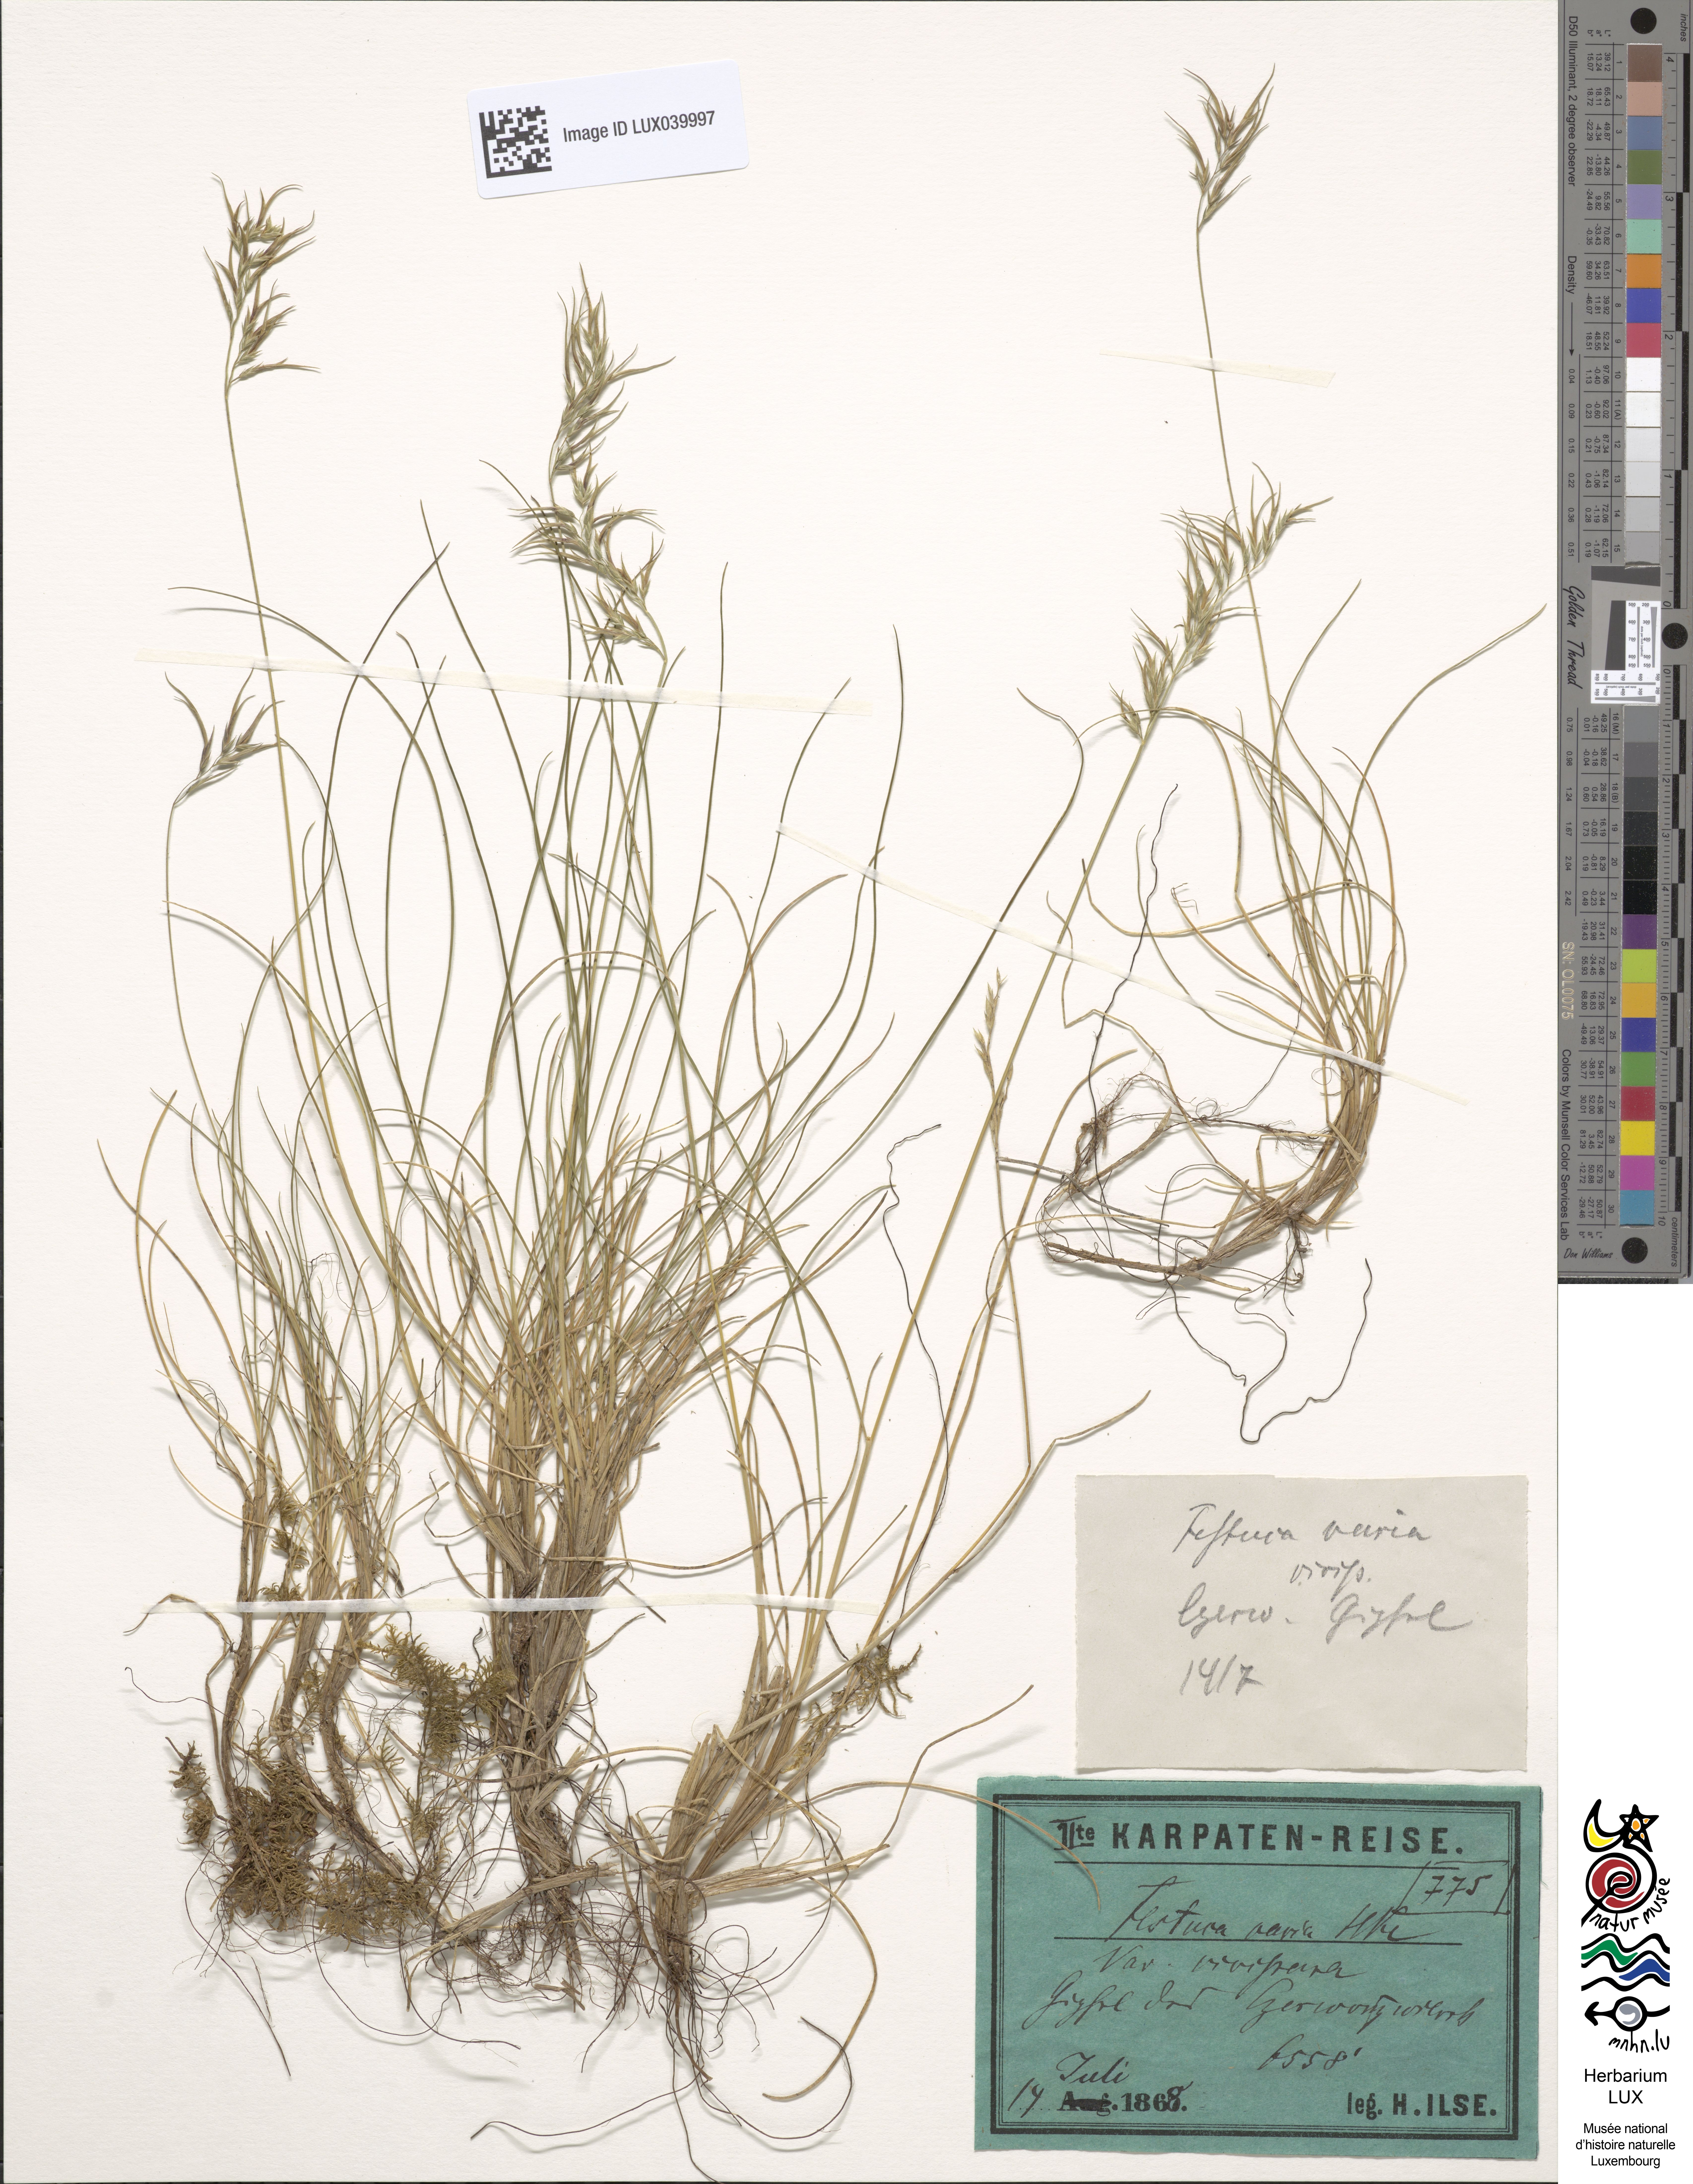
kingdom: Plantae
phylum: Tracheophyta
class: Liliopsida
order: Poales
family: Poaceae
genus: Festuca
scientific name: Festuca varia
